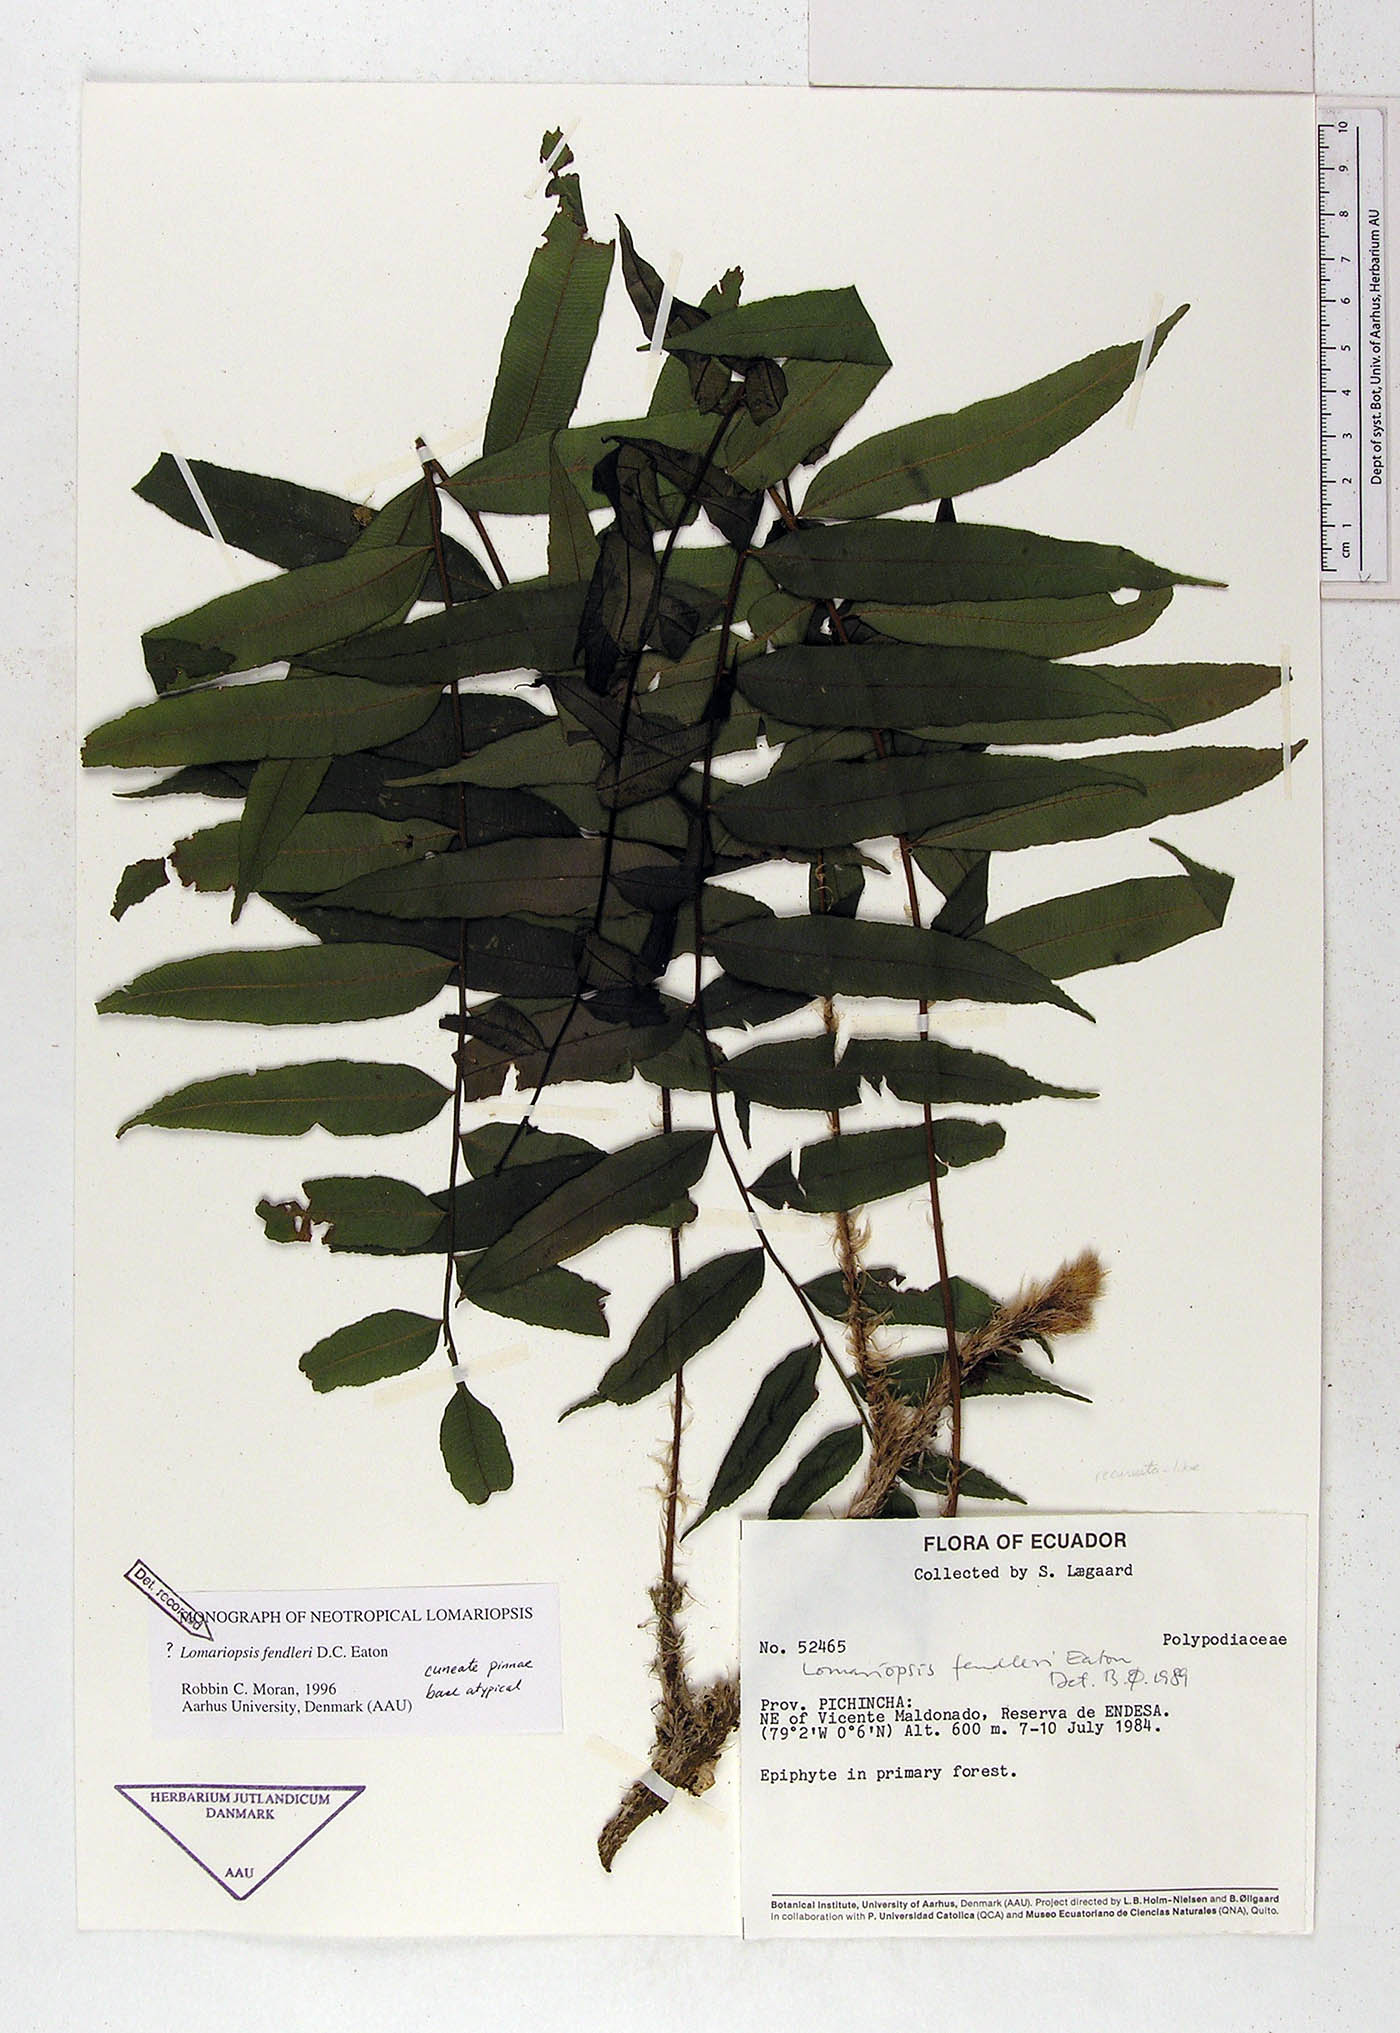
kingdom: Plantae
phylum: Tracheophyta
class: Polypodiopsida
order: Polypodiales
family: Lomariopsidaceae
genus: Lomariopsis
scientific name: Lomariopsis fendleri
